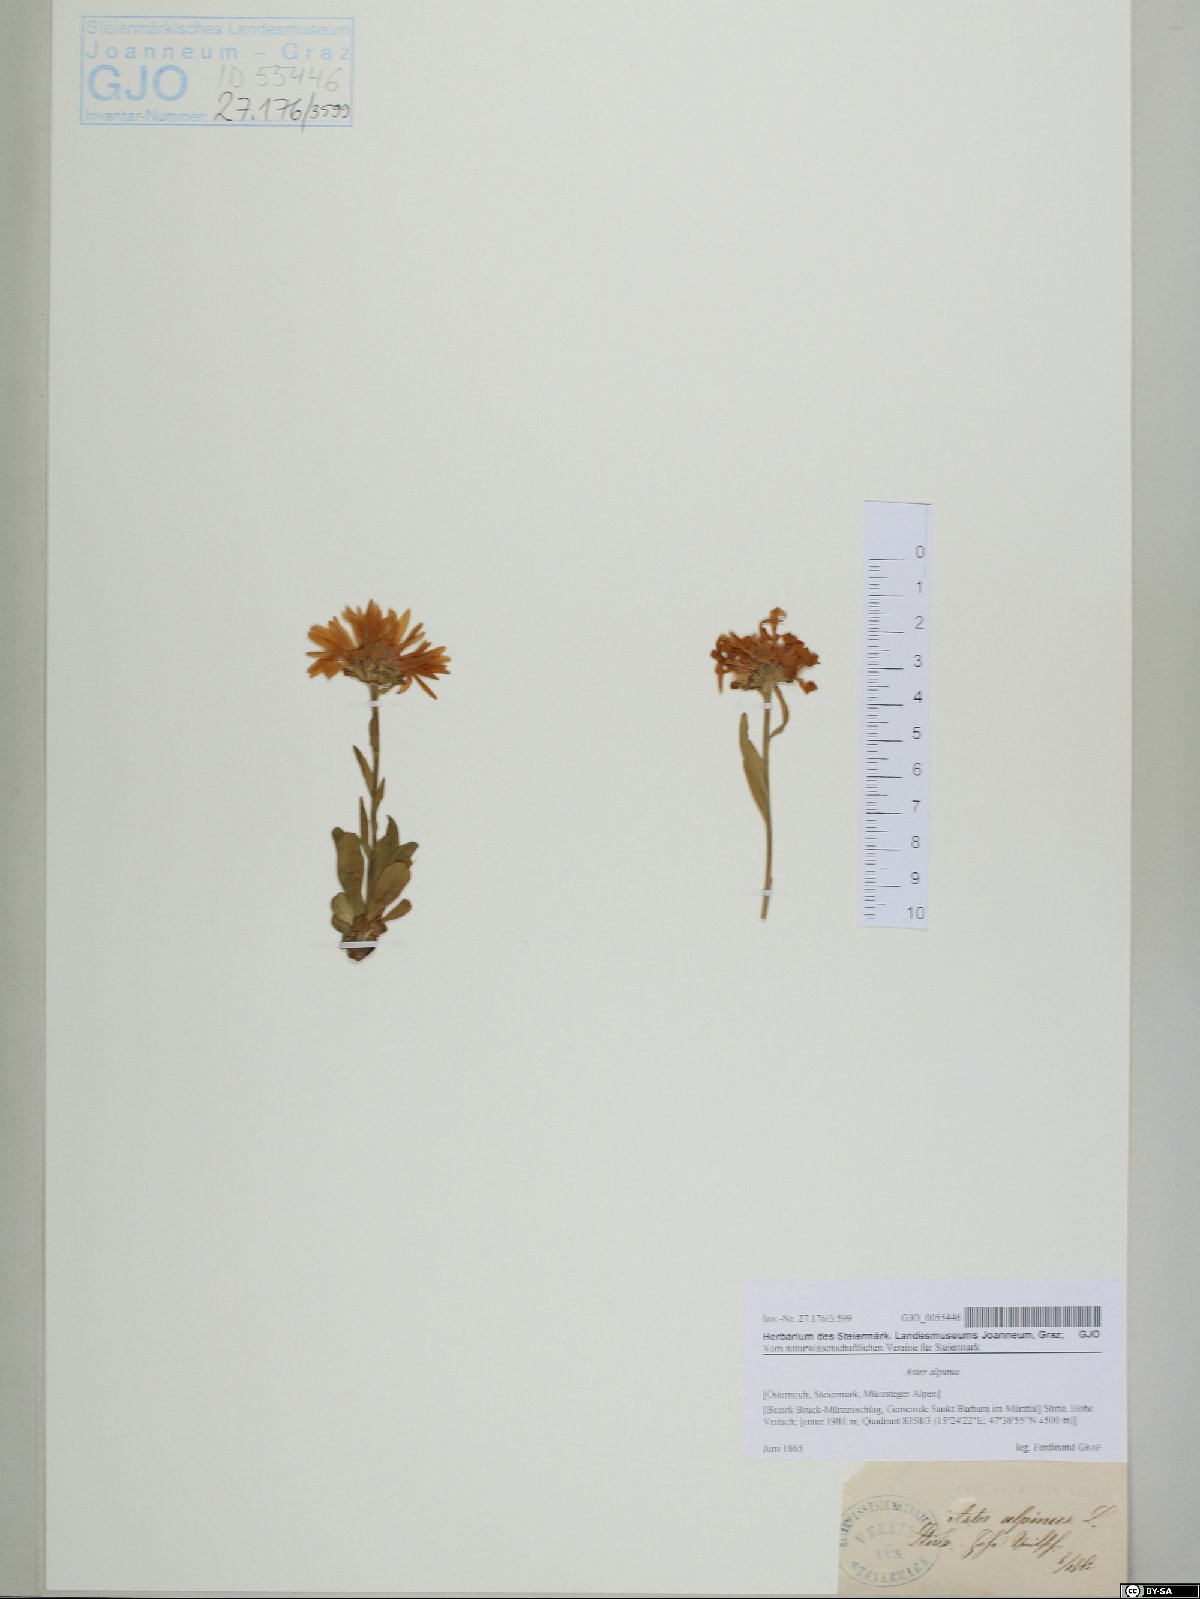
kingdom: Plantae
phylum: Tracheophyta
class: Magnoliopsida
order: Asterales
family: Asteraceae
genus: Aster
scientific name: Aster alpinus
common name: Alpine aster
